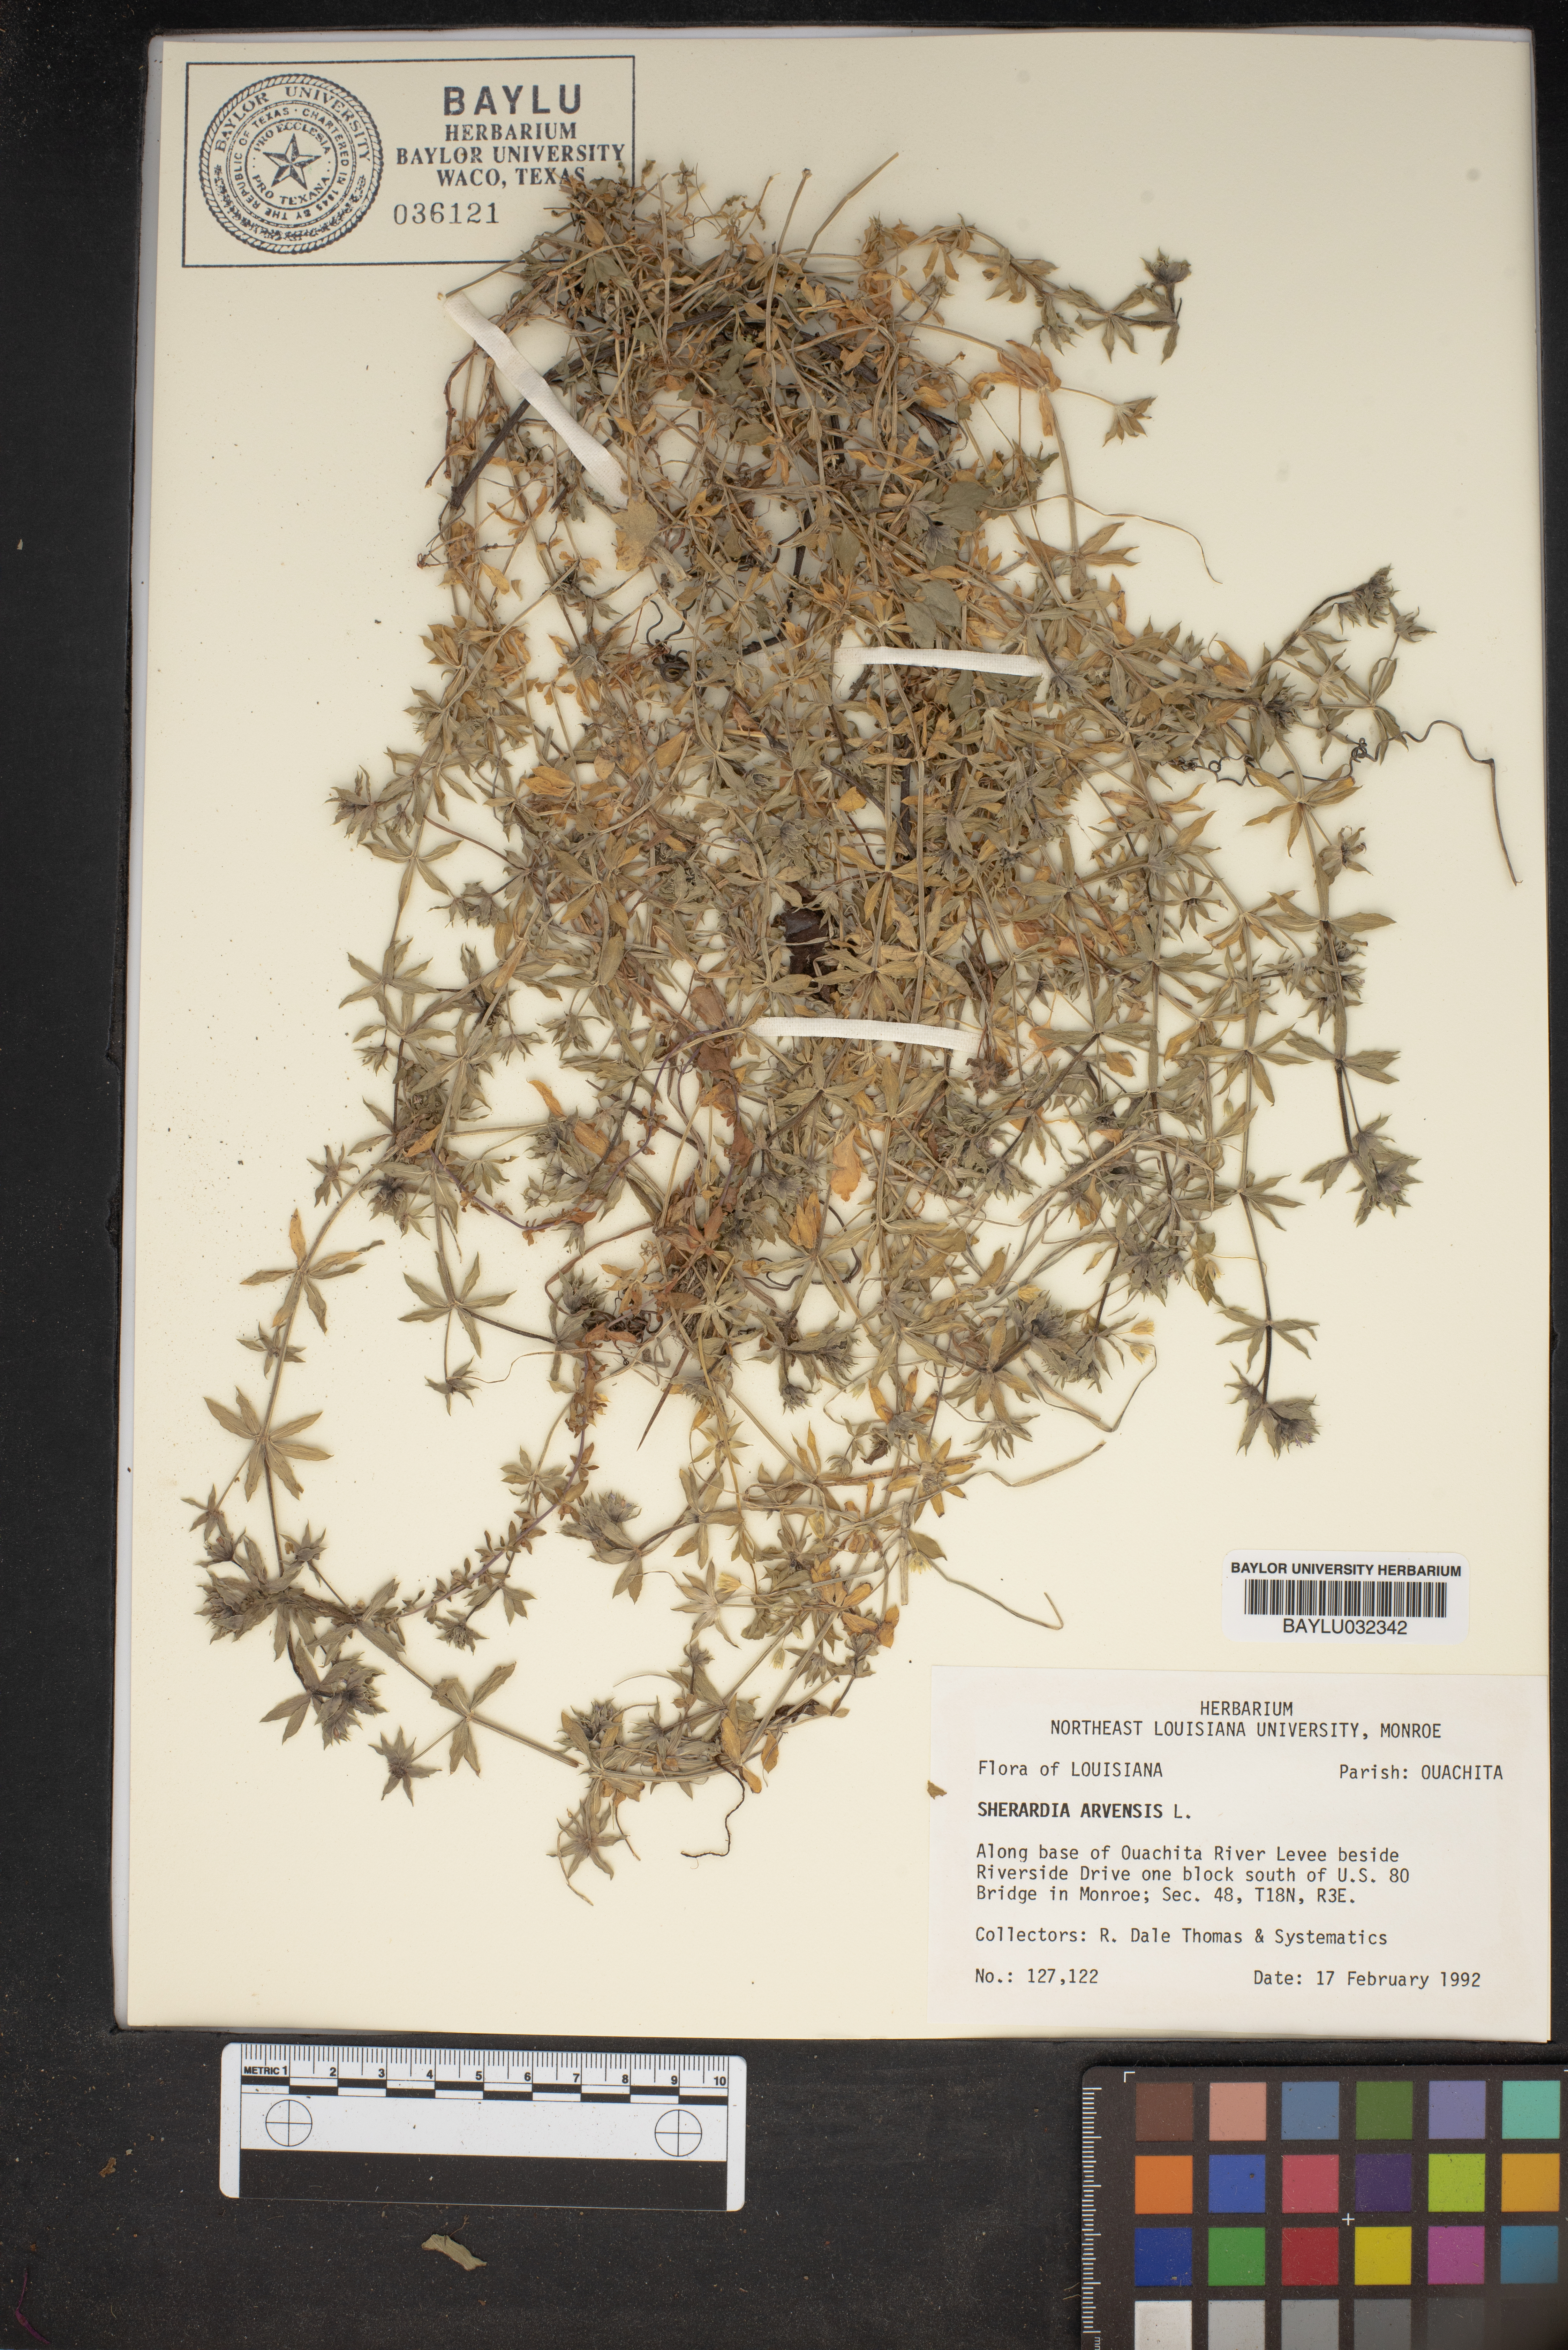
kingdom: Plantae
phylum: Tracheophyta
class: Magnoliopsida
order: Gentianales
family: Rubiaceae
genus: Sherardia
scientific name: Sherardia arvensis
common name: Field madder
